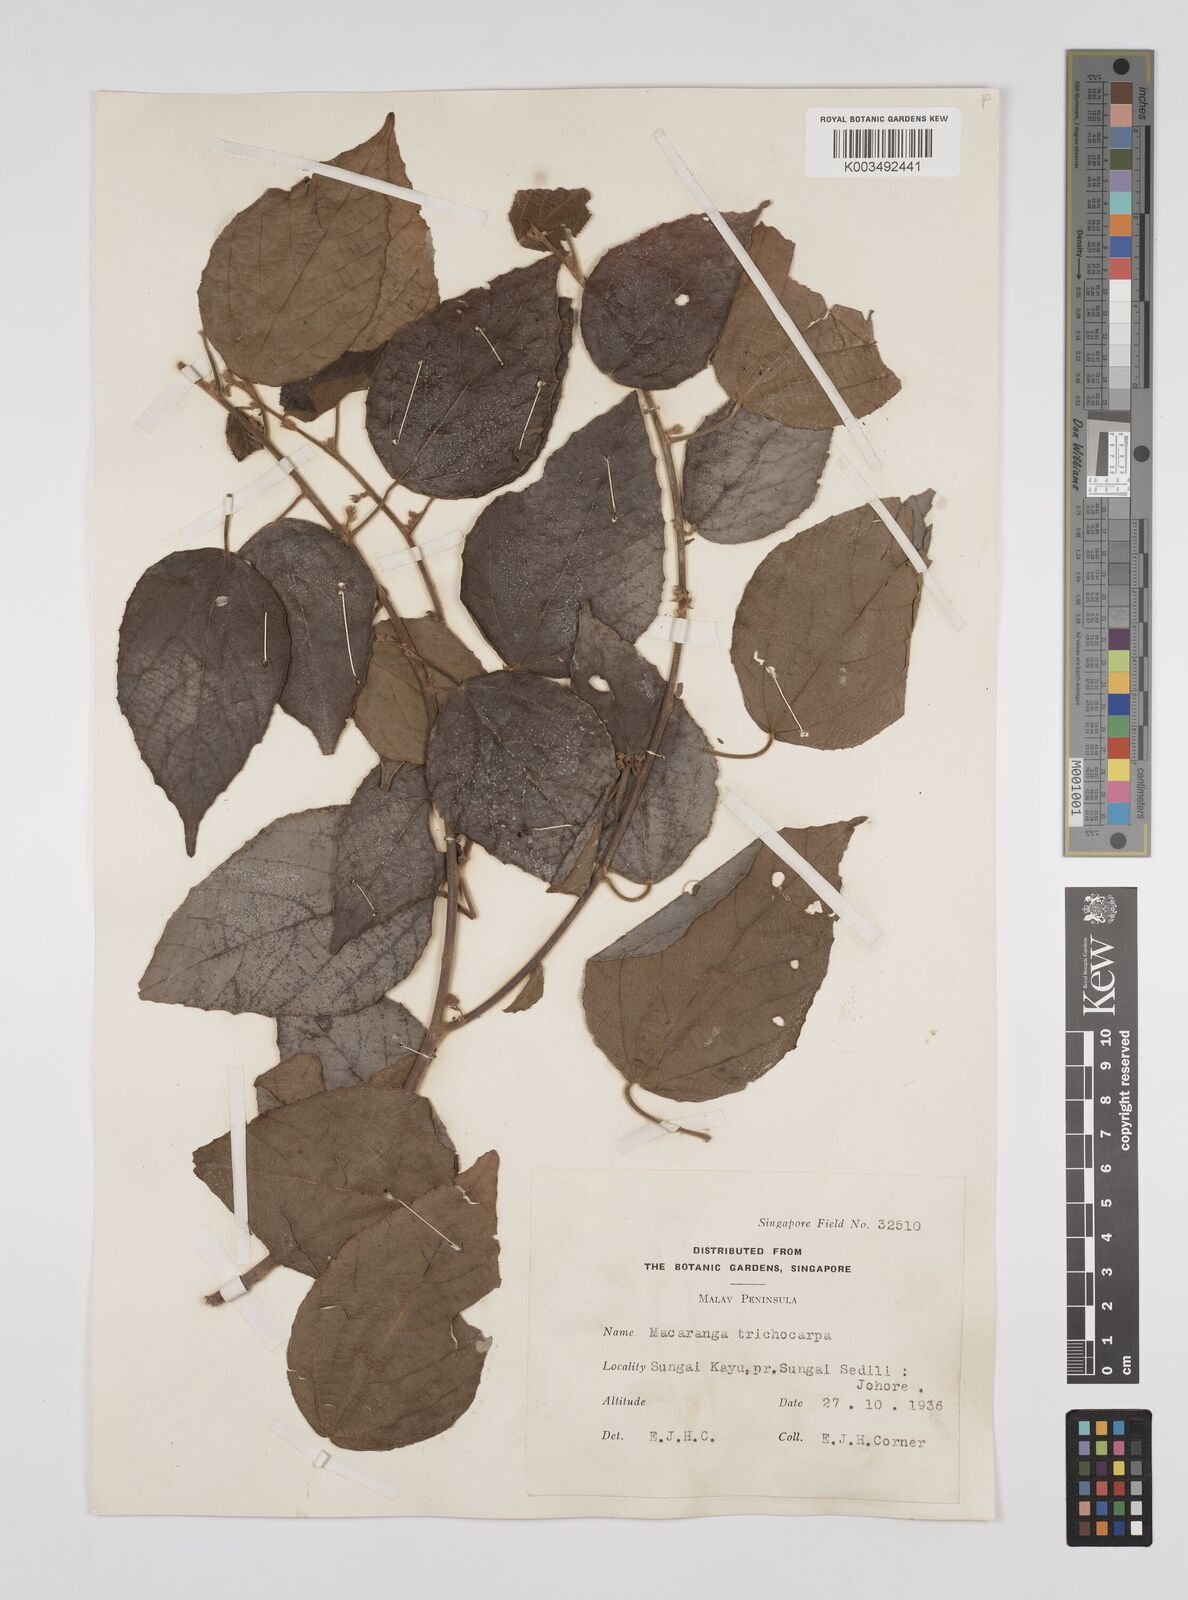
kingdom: Plantae
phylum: Tracheophyta
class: Magnoliopsida
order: Malpighiales
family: Euphorbiaceae
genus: Macaranga
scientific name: Macaranga trichocarpa
